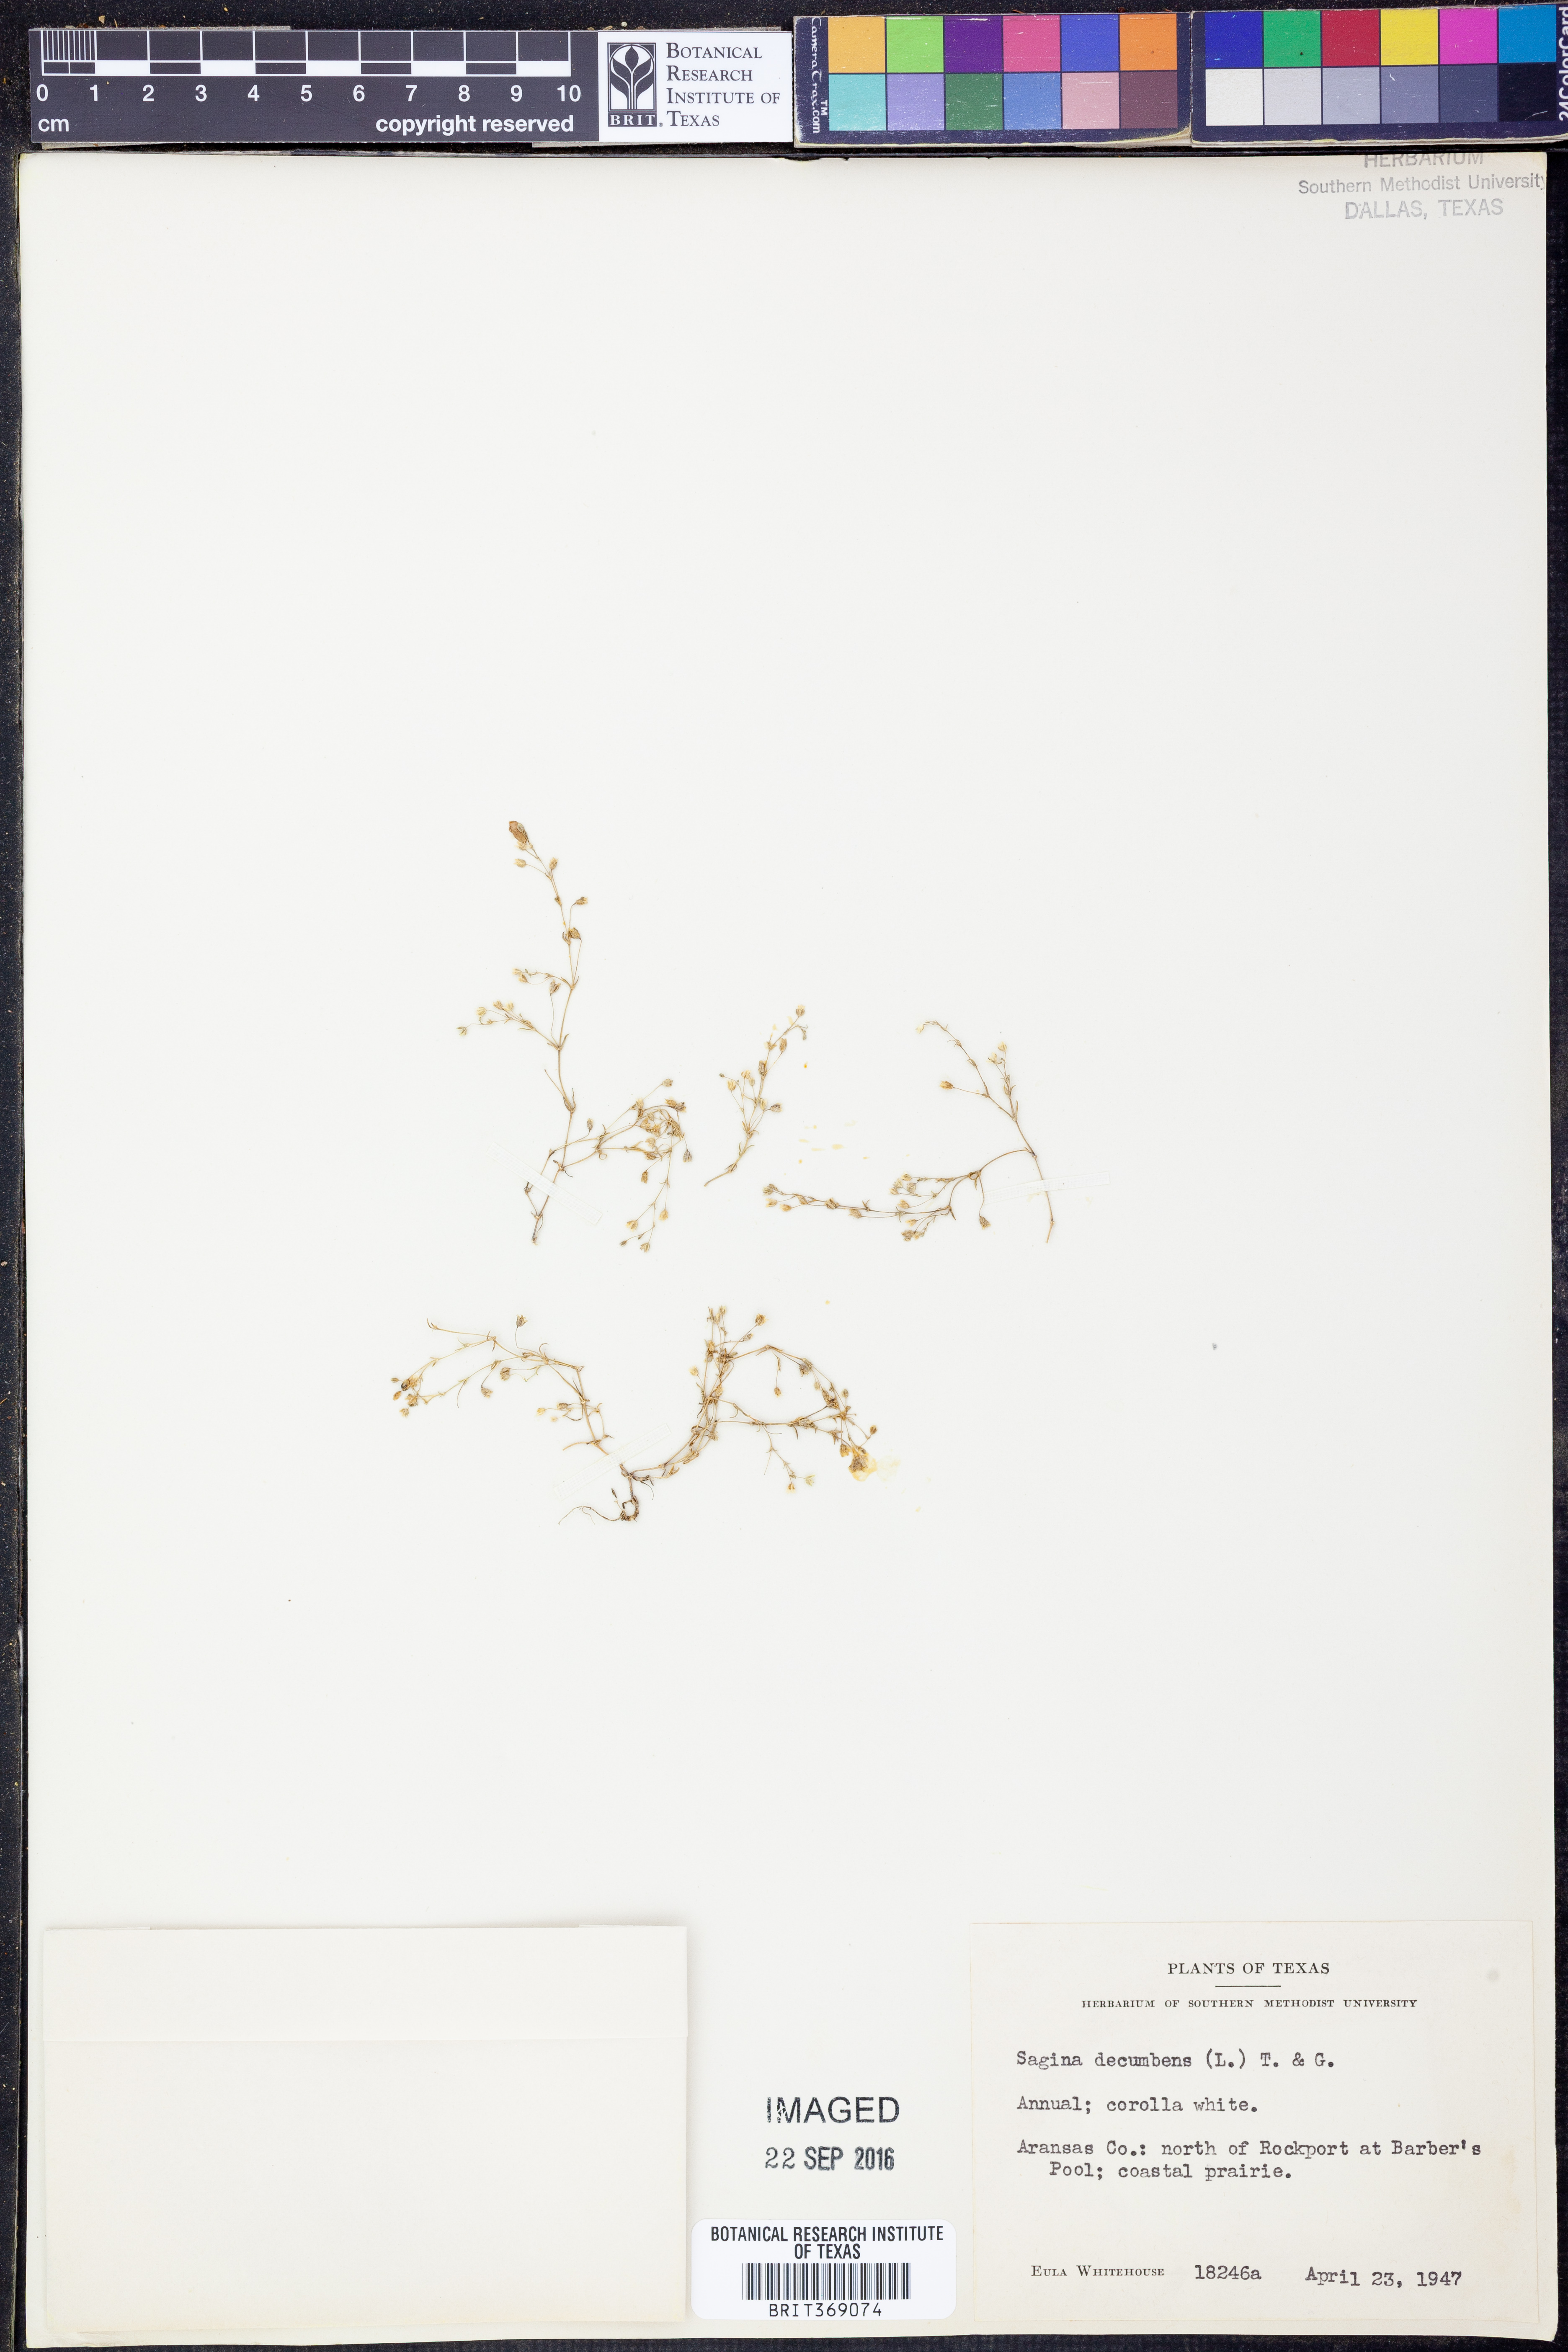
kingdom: Plantae
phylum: Tracheophyta
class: Magnoliopsida
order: Caryophyllales
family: Caryophyllaceae
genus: Sagina
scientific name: Sagina decumbens
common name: Decumbent pearlwort
